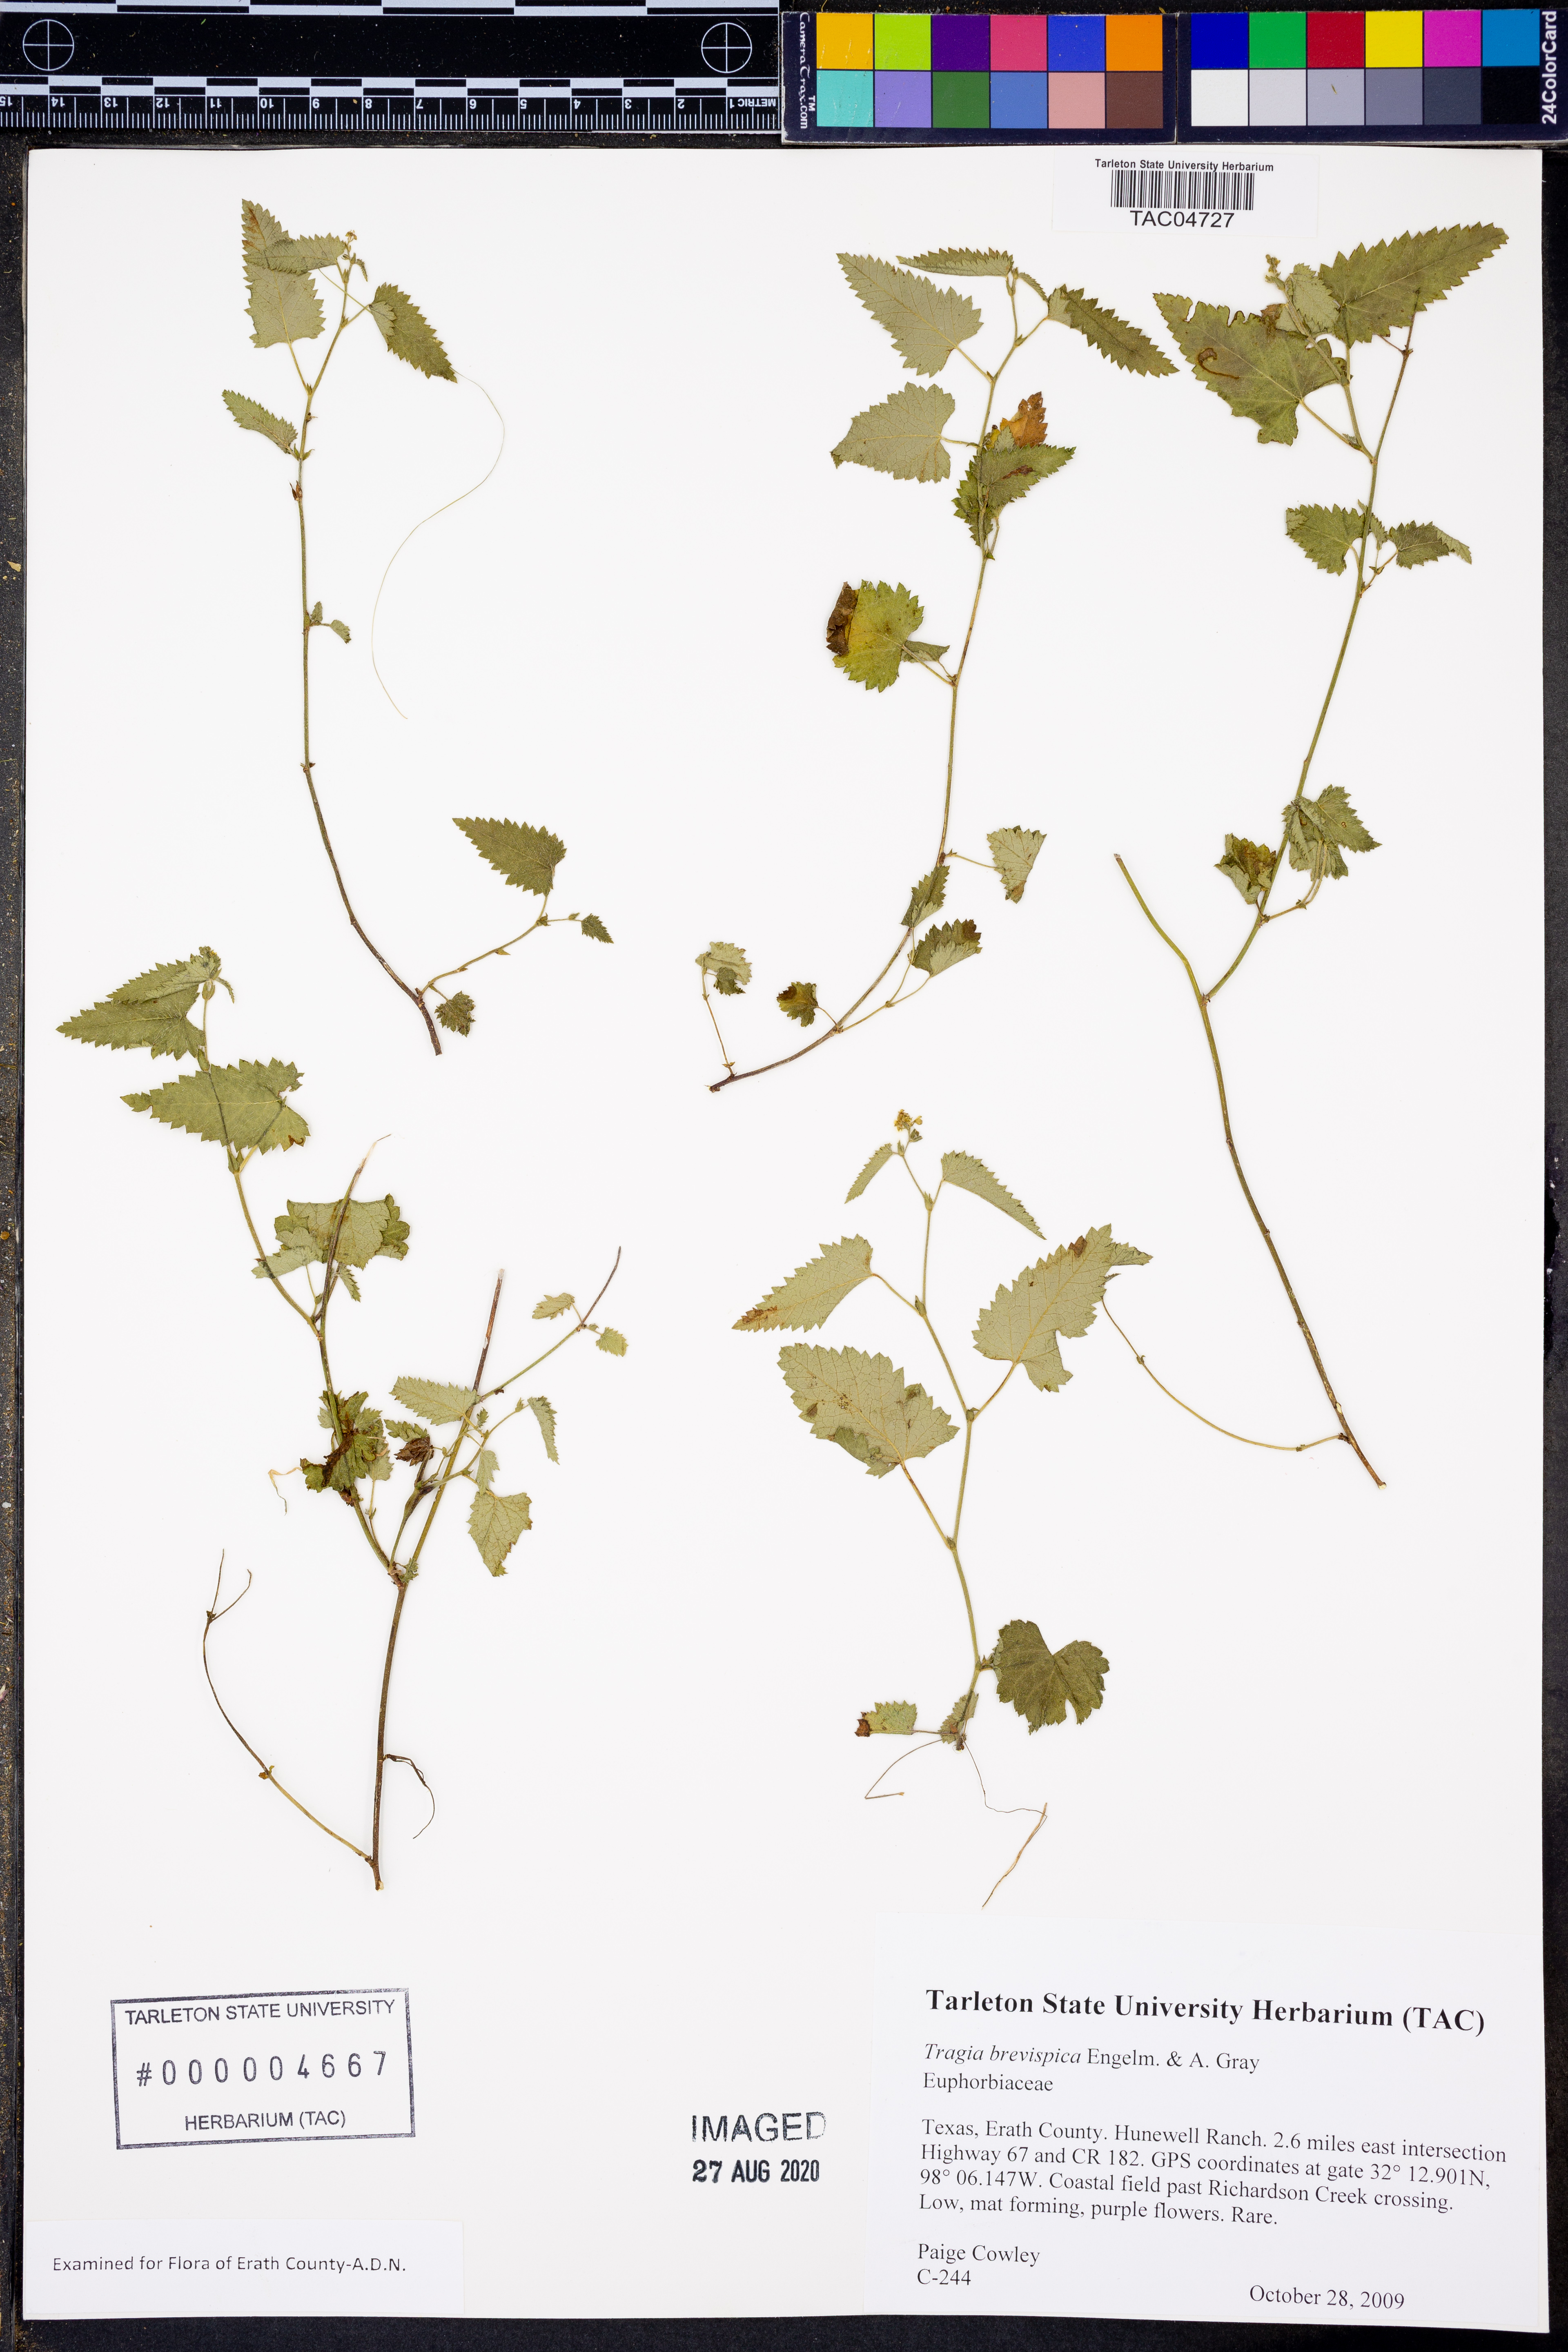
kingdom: Plantae
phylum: Tracheophyta
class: Magnoliopsida
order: Malpighiales
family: Euphorbiaceae
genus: Tragia
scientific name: Tragia brevispica
